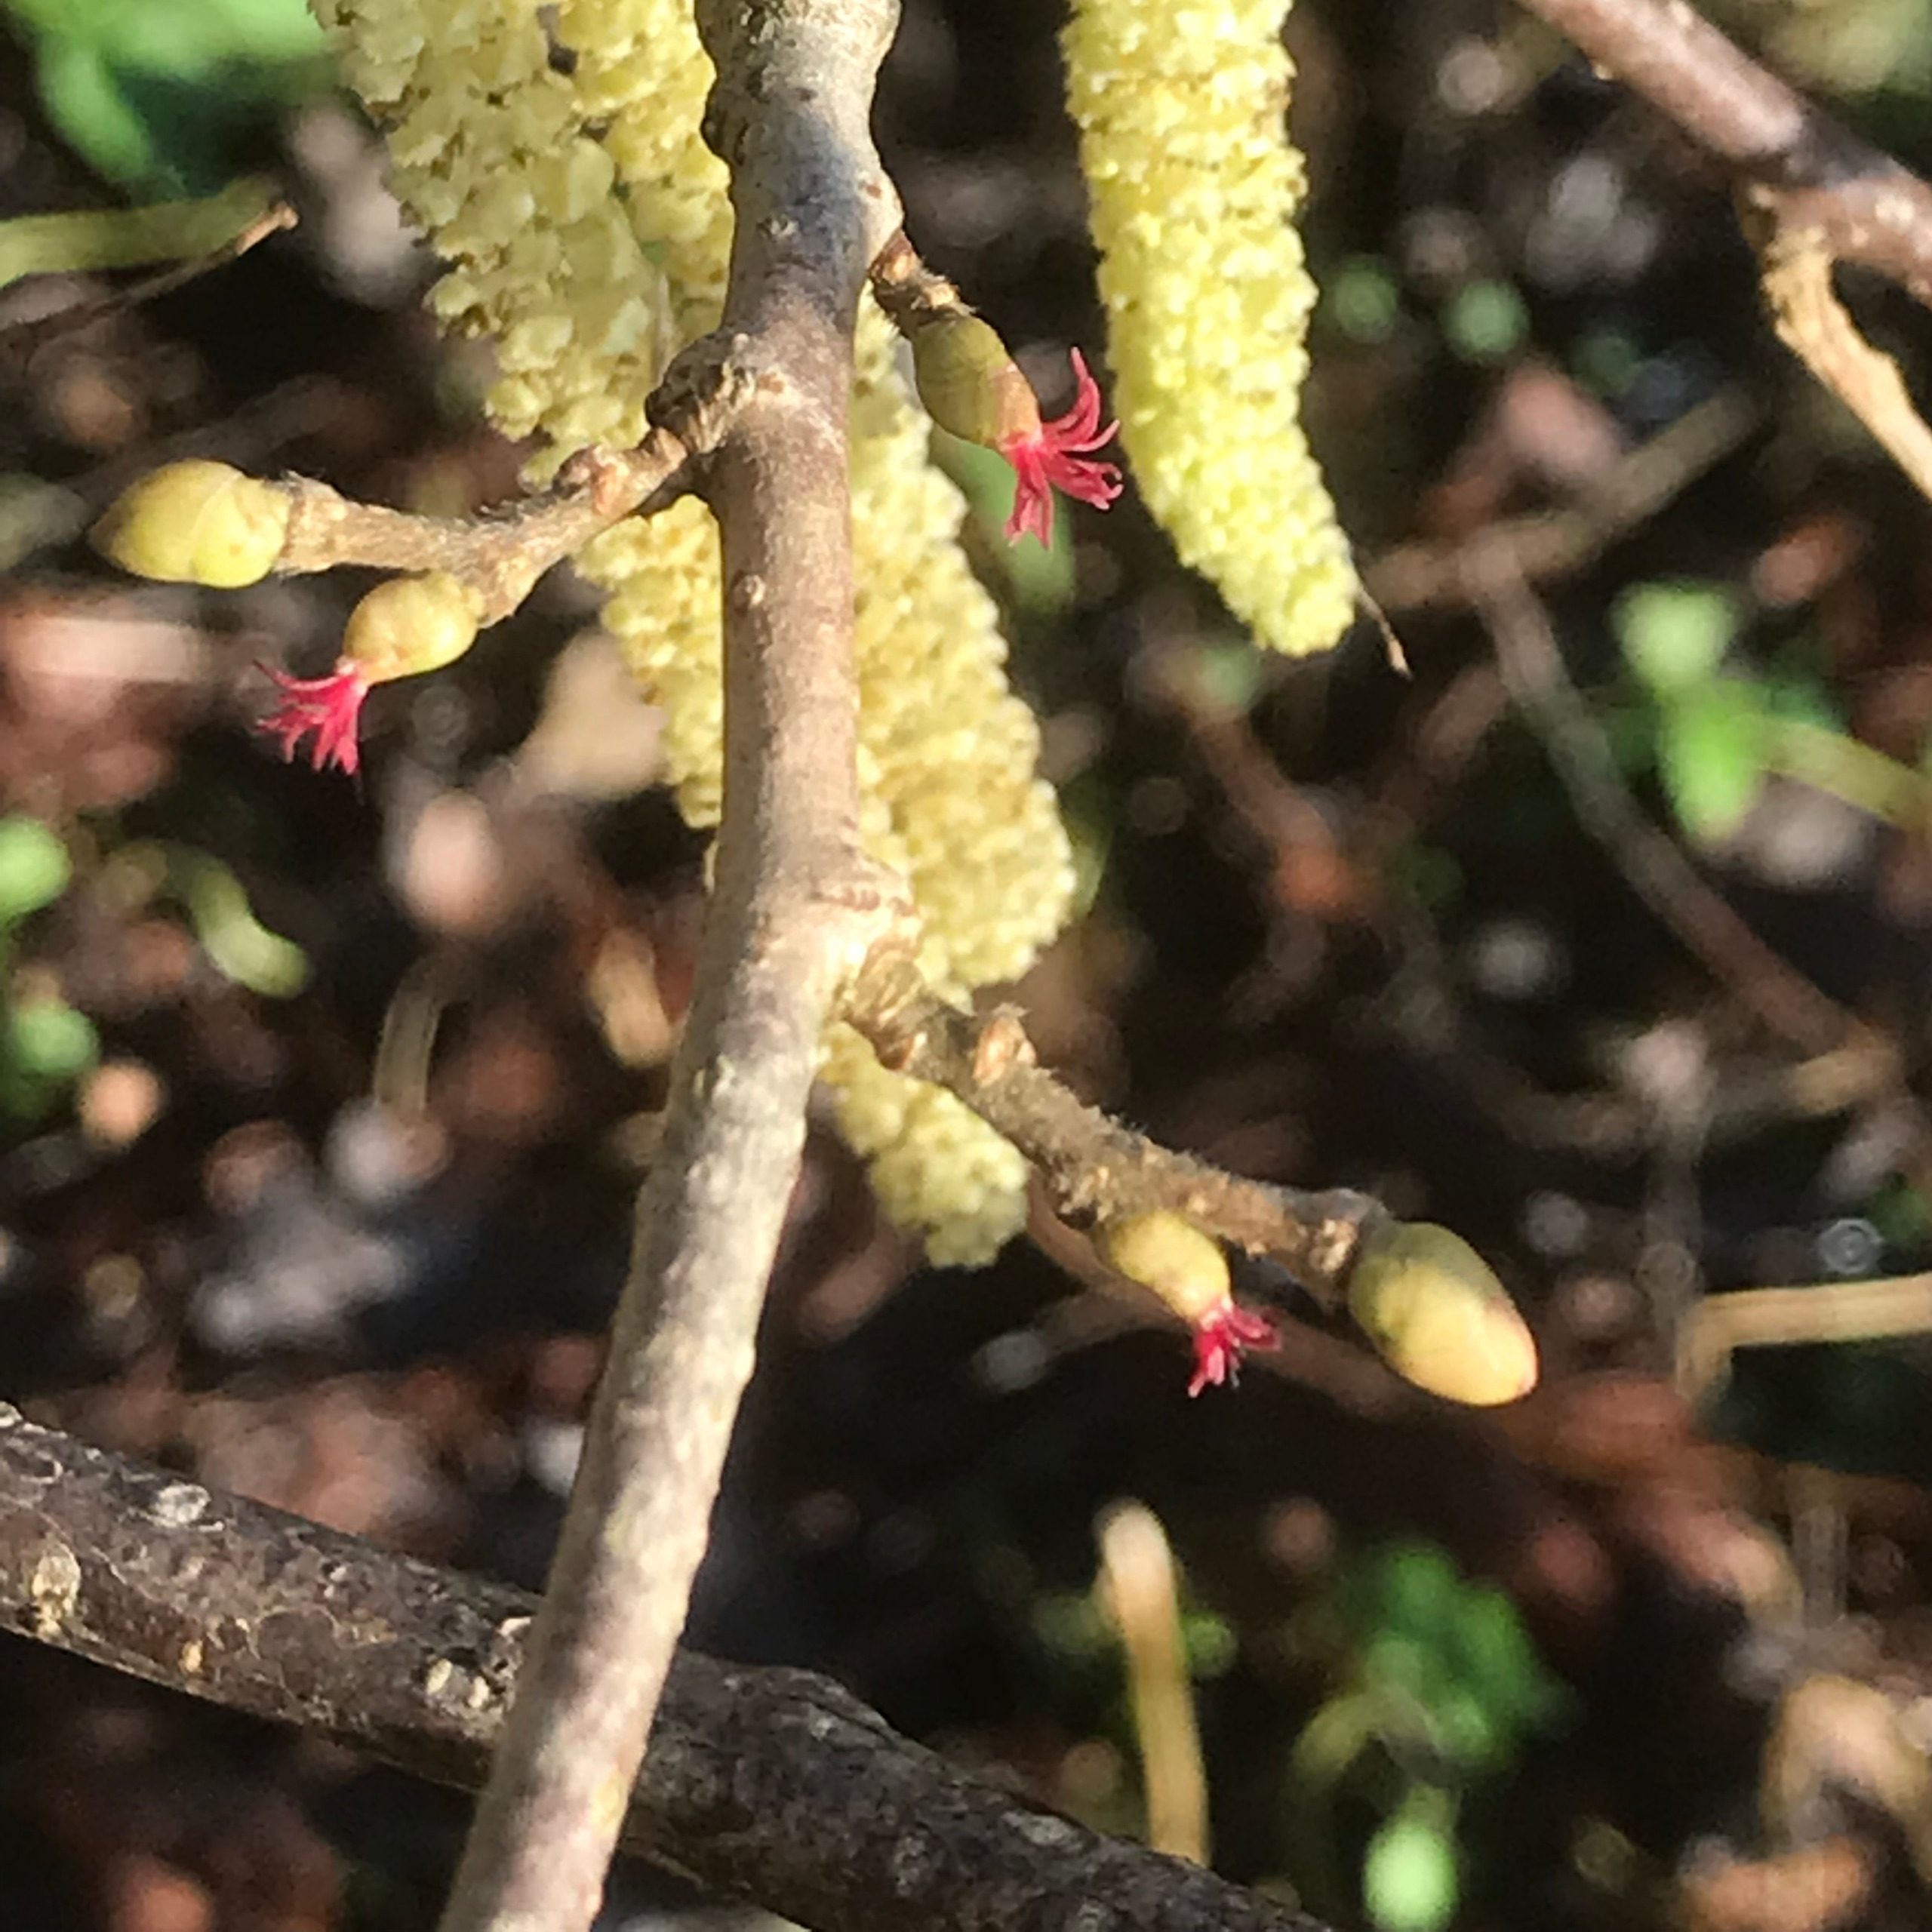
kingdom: Plantae
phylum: Tracheophyta
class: Magnoliopsida
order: Fagales
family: Betulaceae
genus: Corylus
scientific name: Corylus avellana
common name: Hassel
